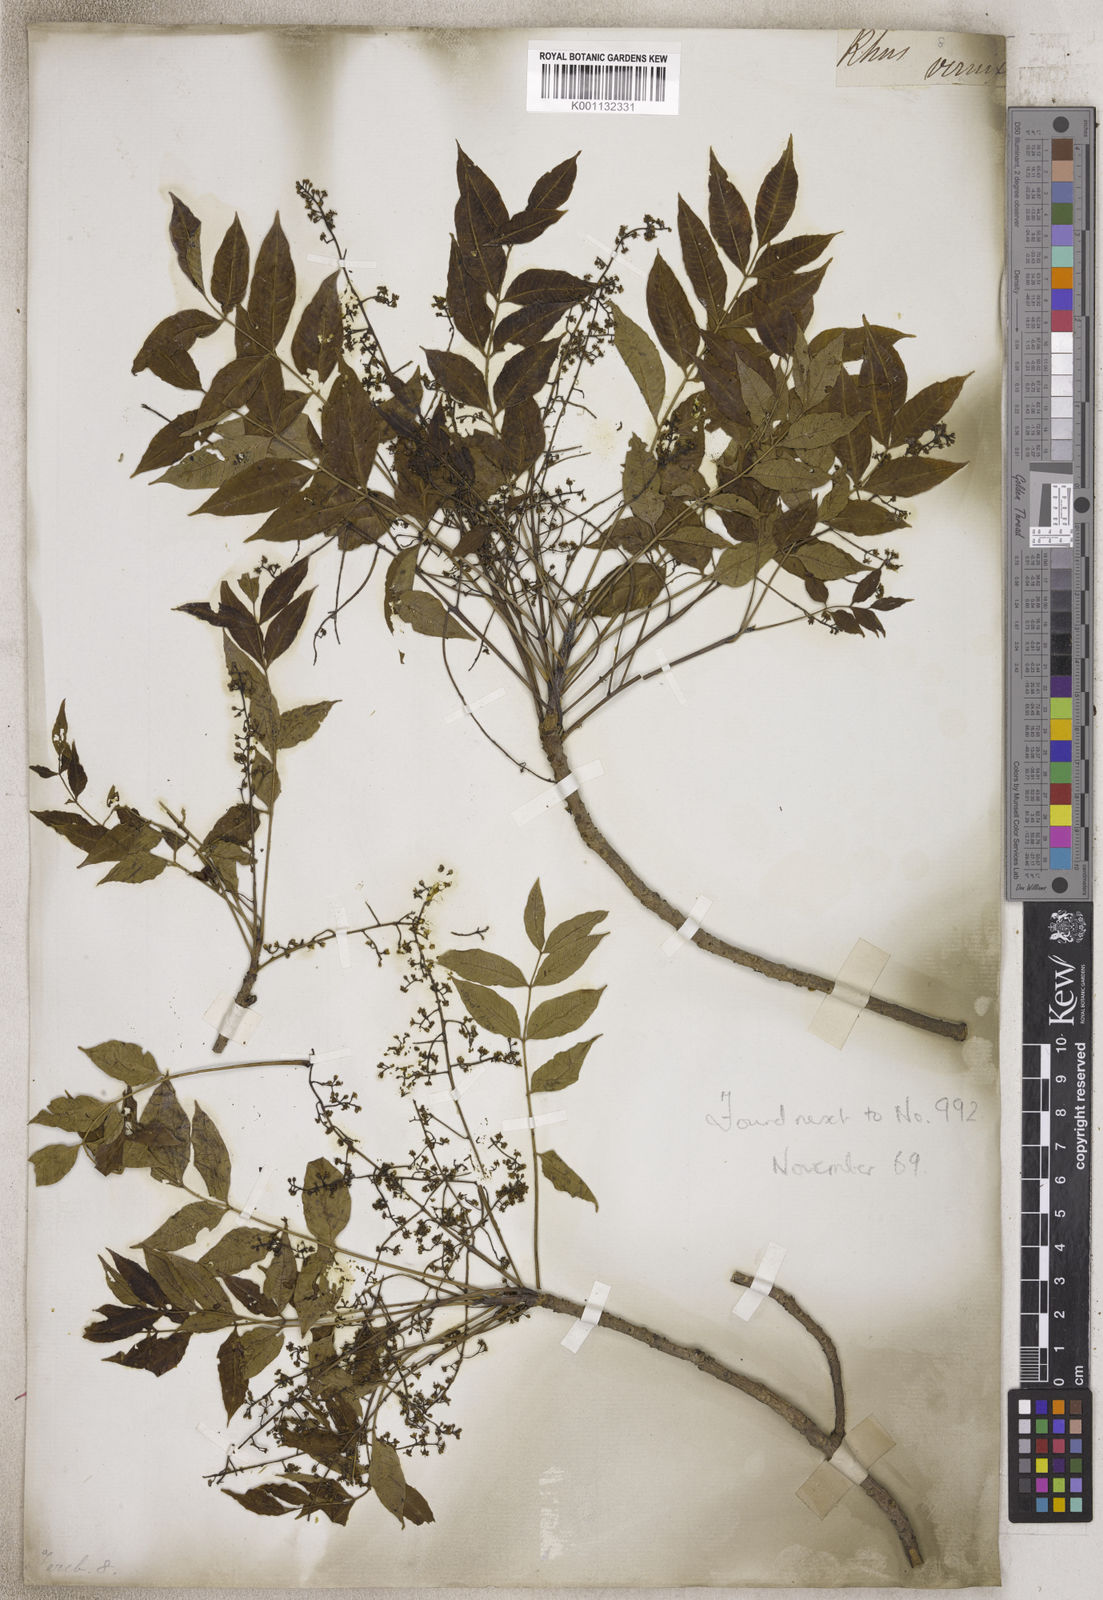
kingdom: Plantae
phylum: Tracheophyta
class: Magnoliopsida
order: Sapindales
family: Anacardiaceae
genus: Rhus
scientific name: Rhus
